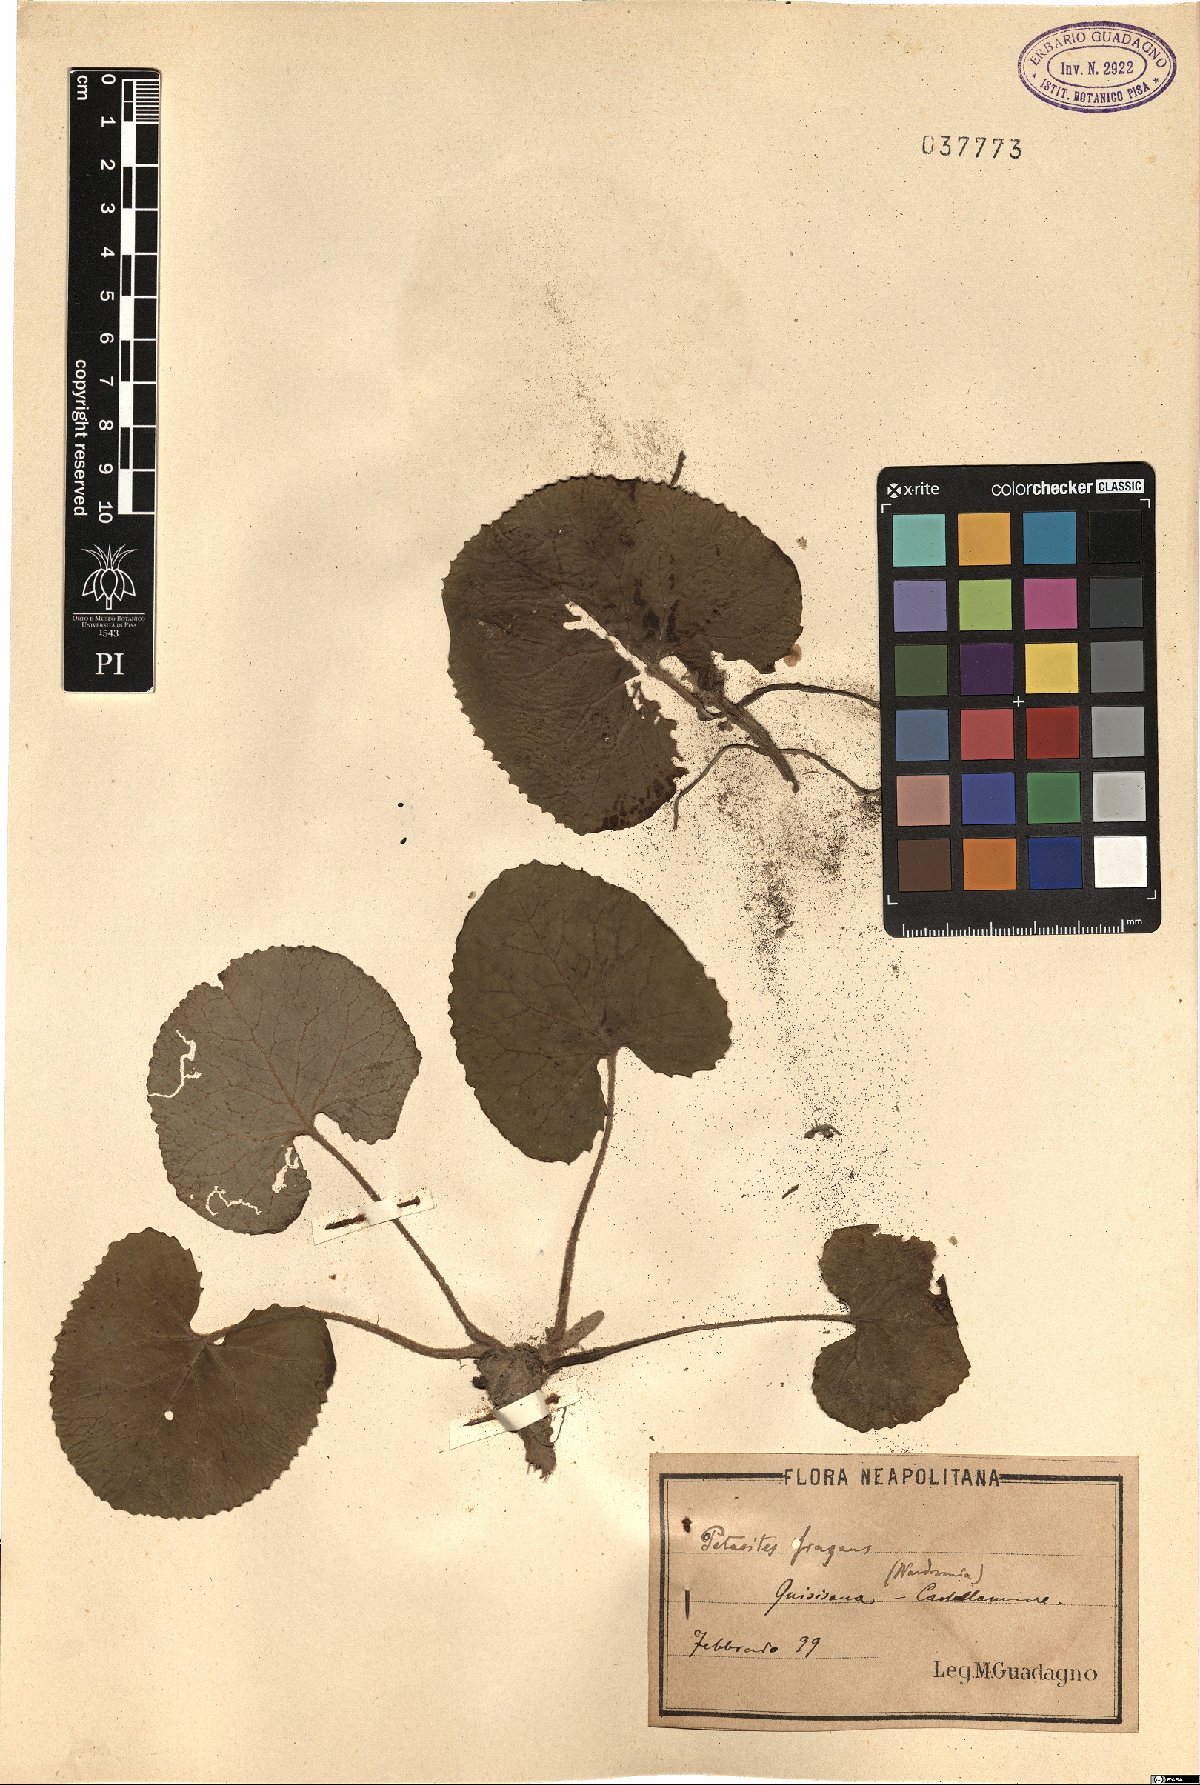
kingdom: Plantae
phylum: Tracheophyta
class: Magnoliopsida
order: Asterales
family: Asteraceae
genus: Petasites
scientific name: Petasites pyrenaicus
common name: Winter heliotrope
